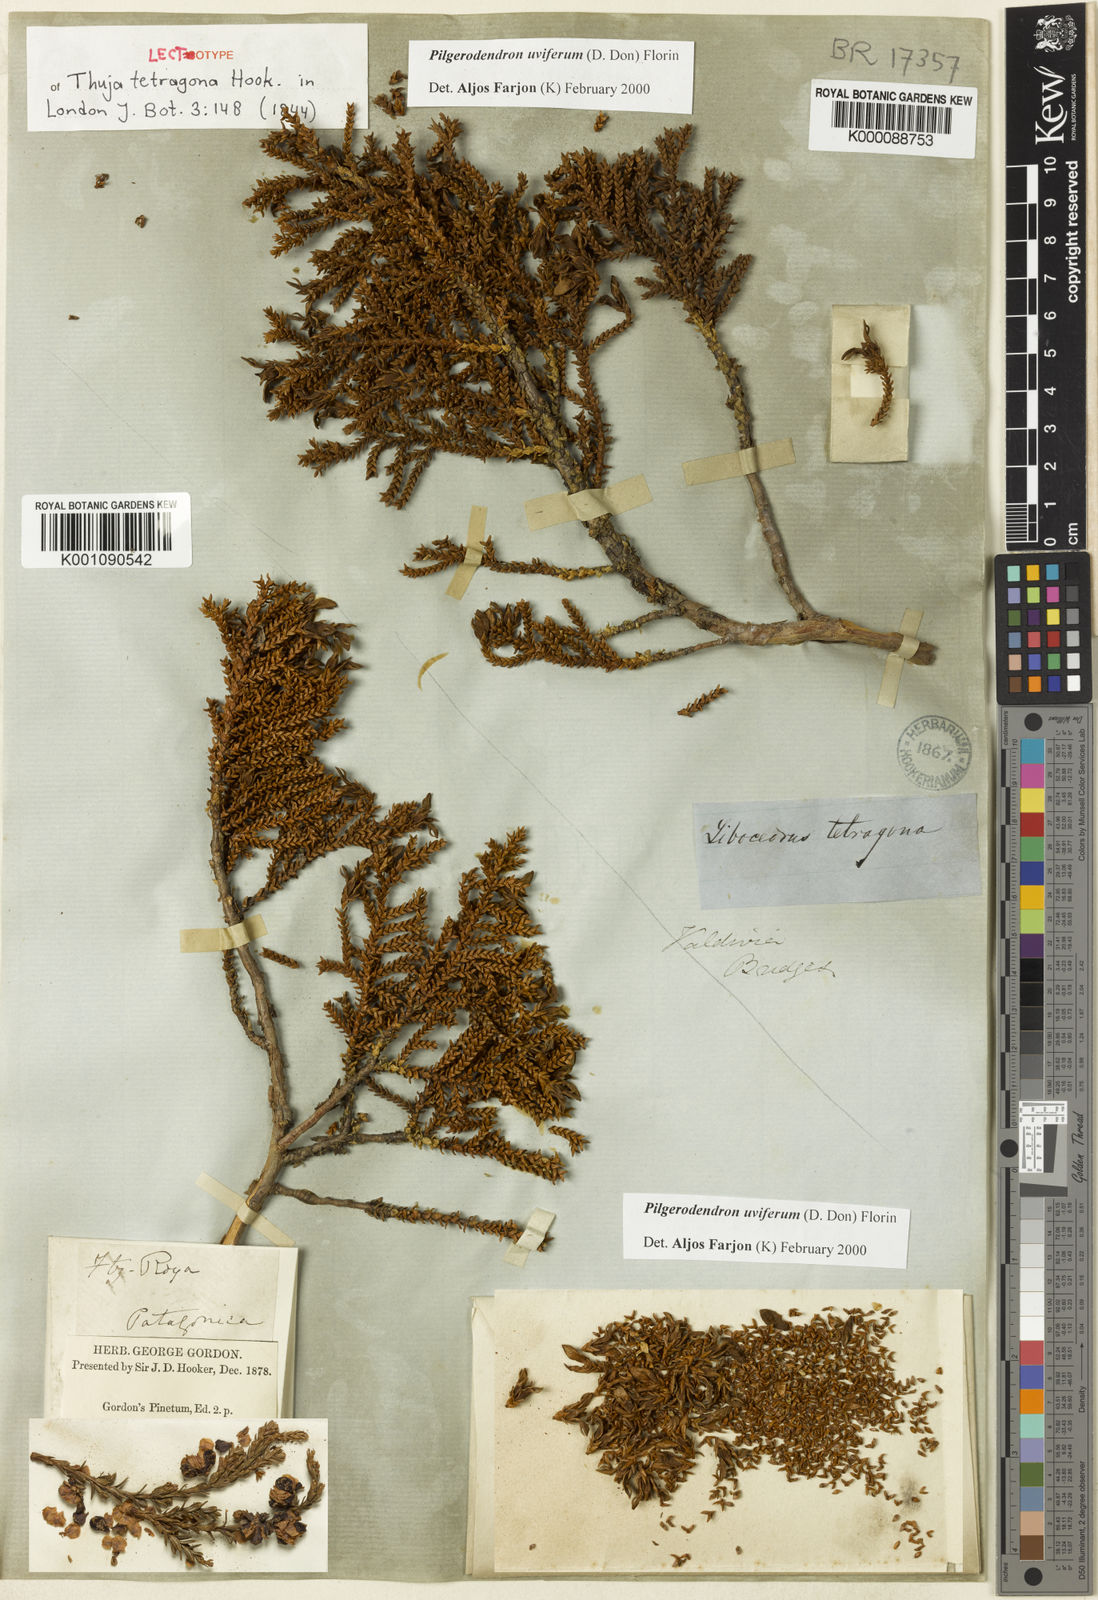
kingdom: Plantae
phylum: Tracheophyta
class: Pinopsida
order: Pinales
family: Cupressaceae
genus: Pilgerodendron
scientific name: Pilgerodendron uviferum
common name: Guaitecas cypress
